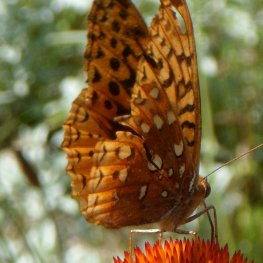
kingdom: Animalia
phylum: Arthropoda
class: Insecta
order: Lepidoptera
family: Nymphalidae
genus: Speyeria
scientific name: Speyeria cybele
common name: Great Spangled Fritillary
